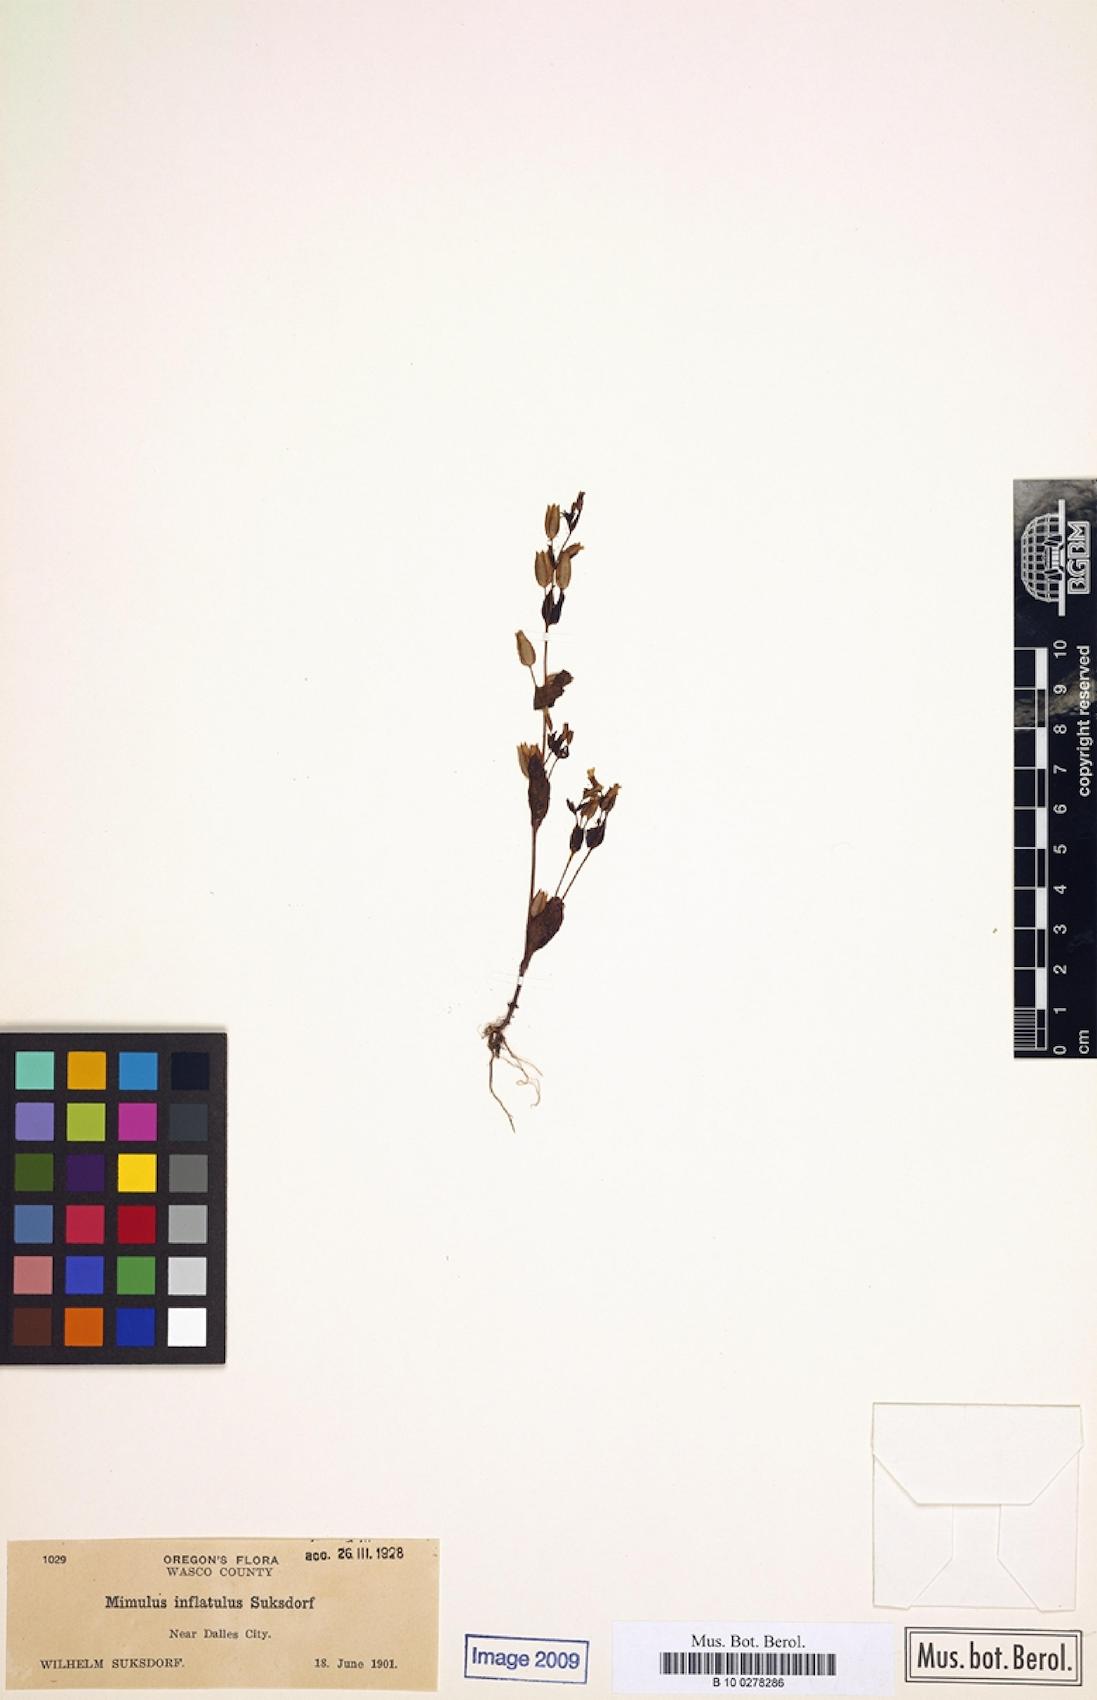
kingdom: Plantae
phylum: Tracheophyta
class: Magnoliopsida
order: Lamiales
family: Phrymaceae
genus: Erythranthe
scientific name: Erythranthe breviflora
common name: Short-flowered monkeyflower
